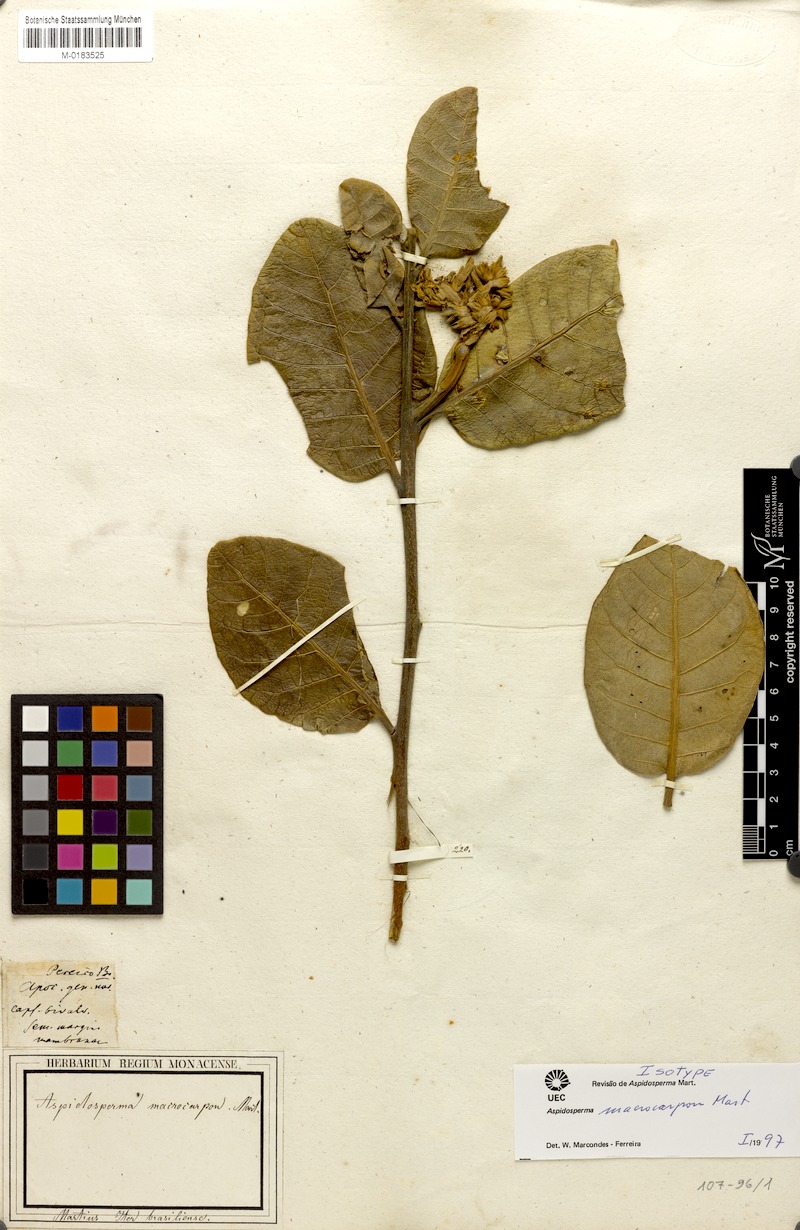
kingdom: Plantae
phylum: Tracheophyta
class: Magnoliopsida
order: Gentianales
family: Apocynaceae
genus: Aspidosperma
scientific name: Aspidosperma macrocarpon
